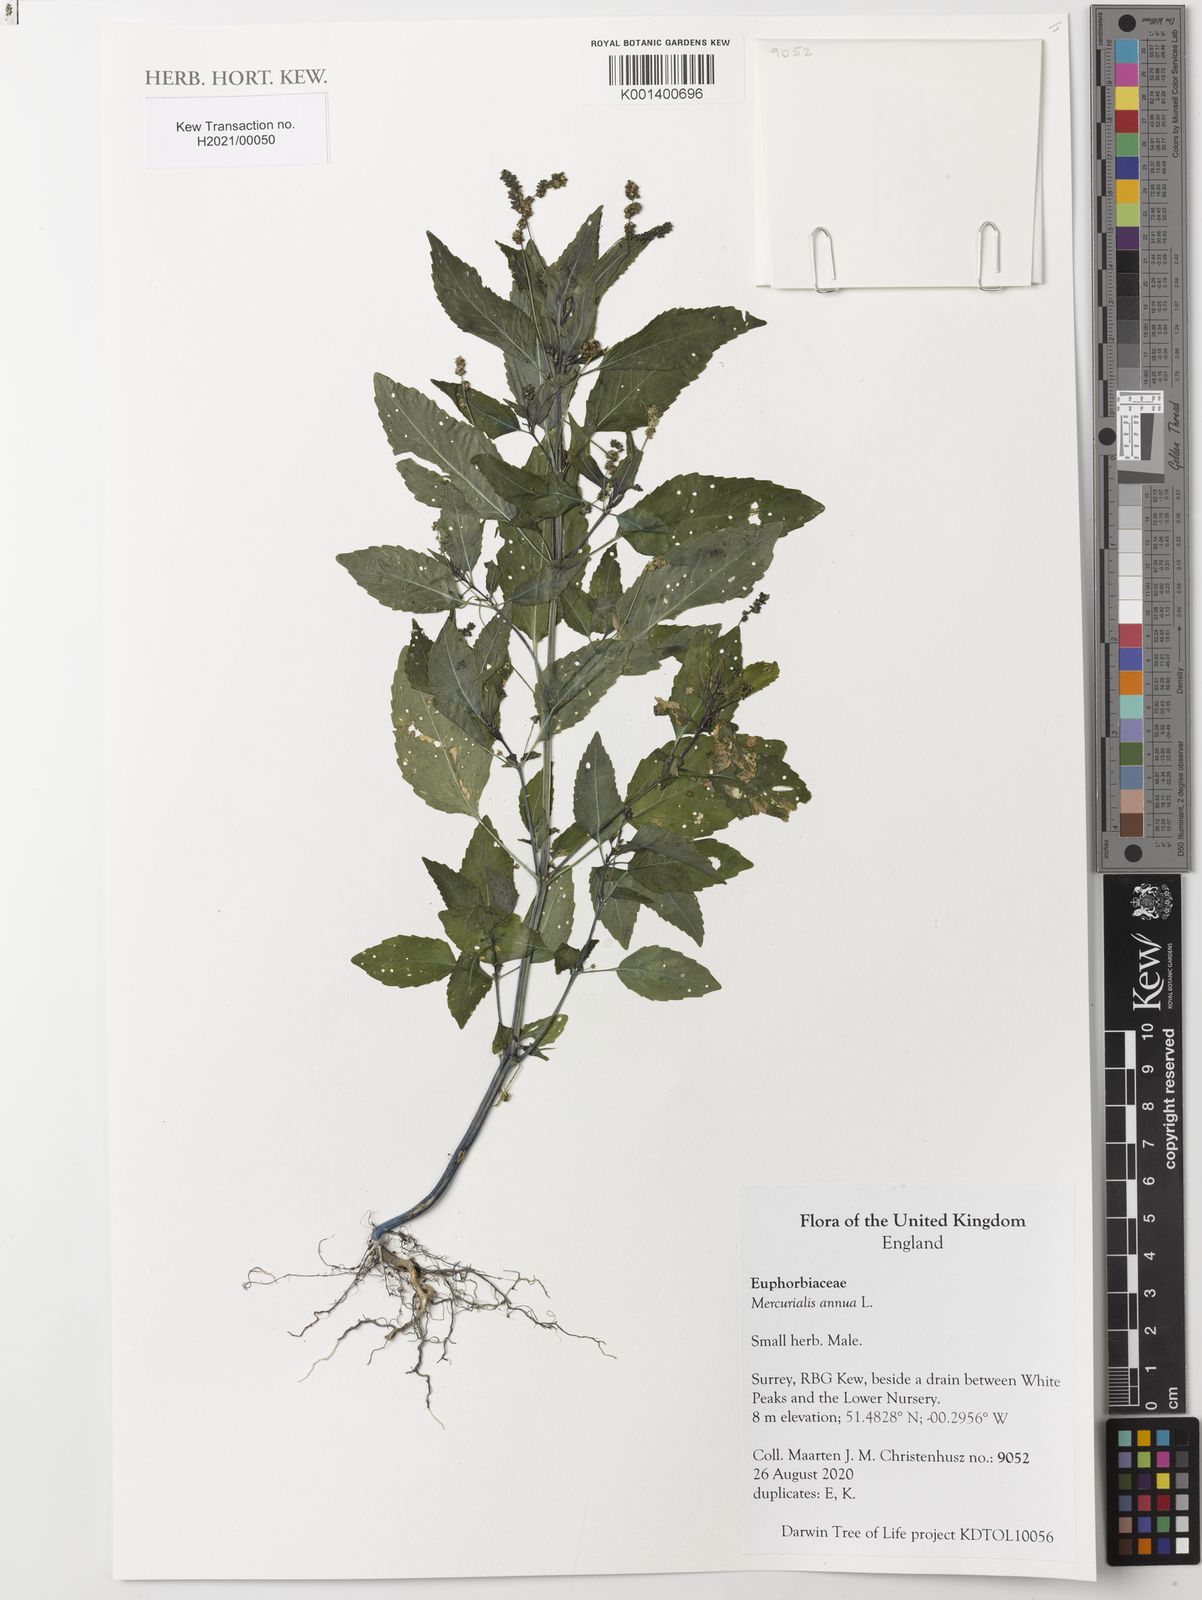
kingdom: Plantae
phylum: Tracheophyta
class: Magnoliopsida
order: Malpighiales
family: Euphorbiaceae
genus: Mercurialis
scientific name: Mercurialis annua
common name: Annual mercury
